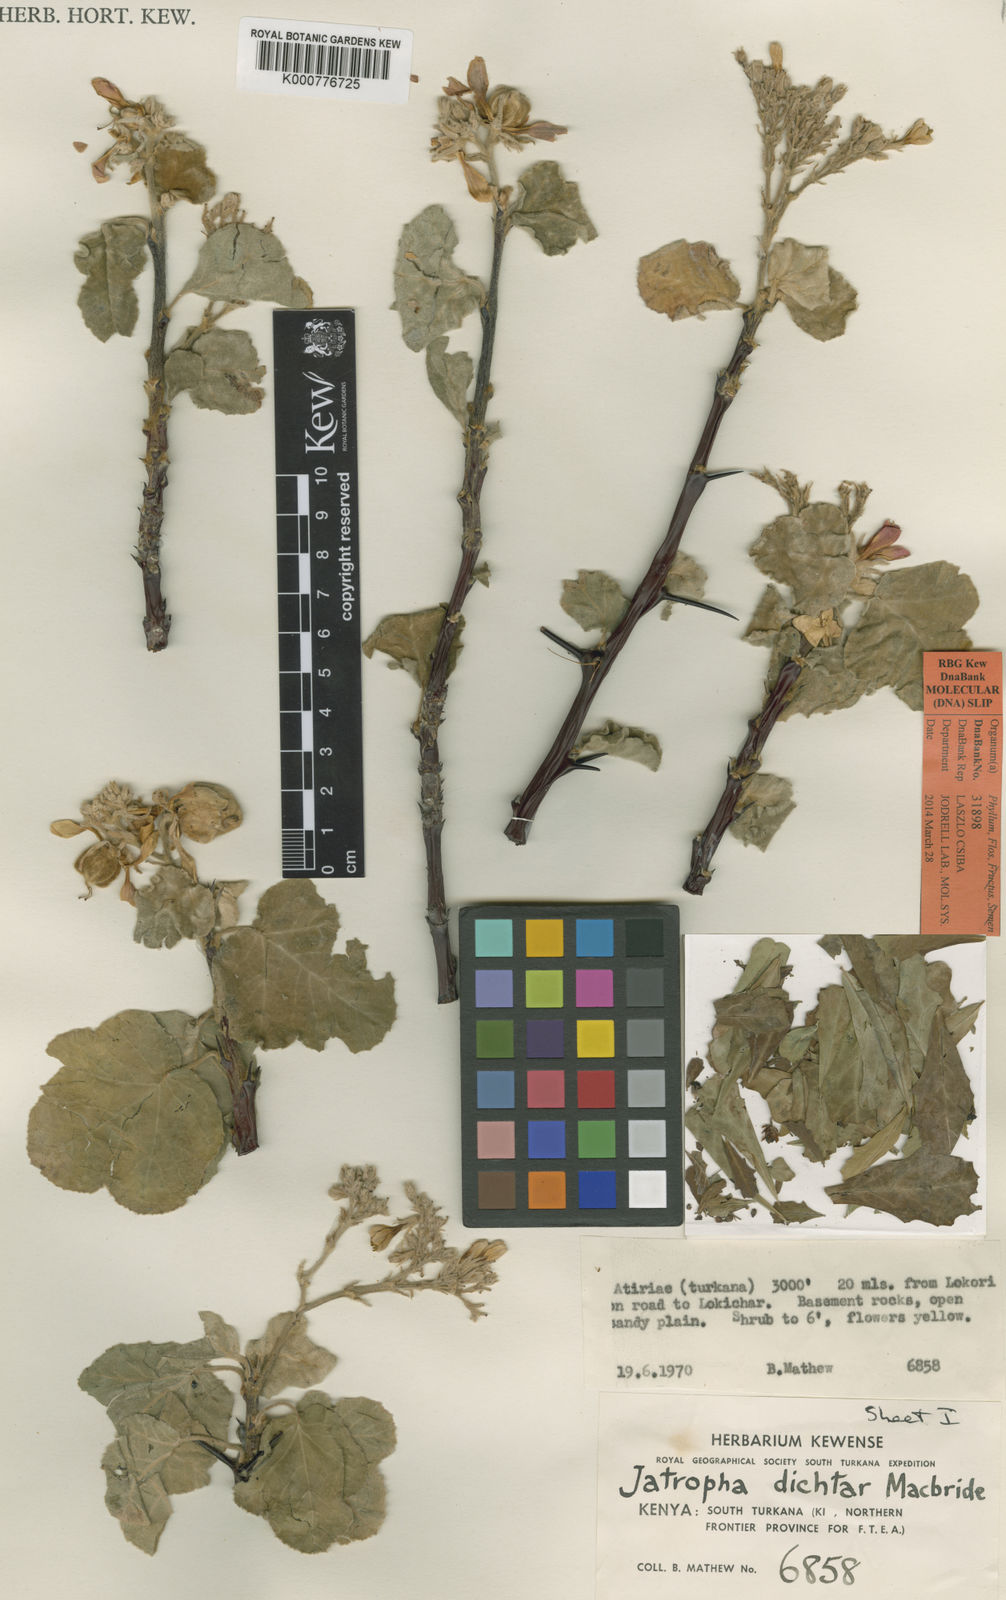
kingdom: Plantae
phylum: Tracheophyta
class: Magnoliopsida
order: Malpighiales
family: Euphorbiaceae
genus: Jatropha
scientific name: Jatropha dichtar
